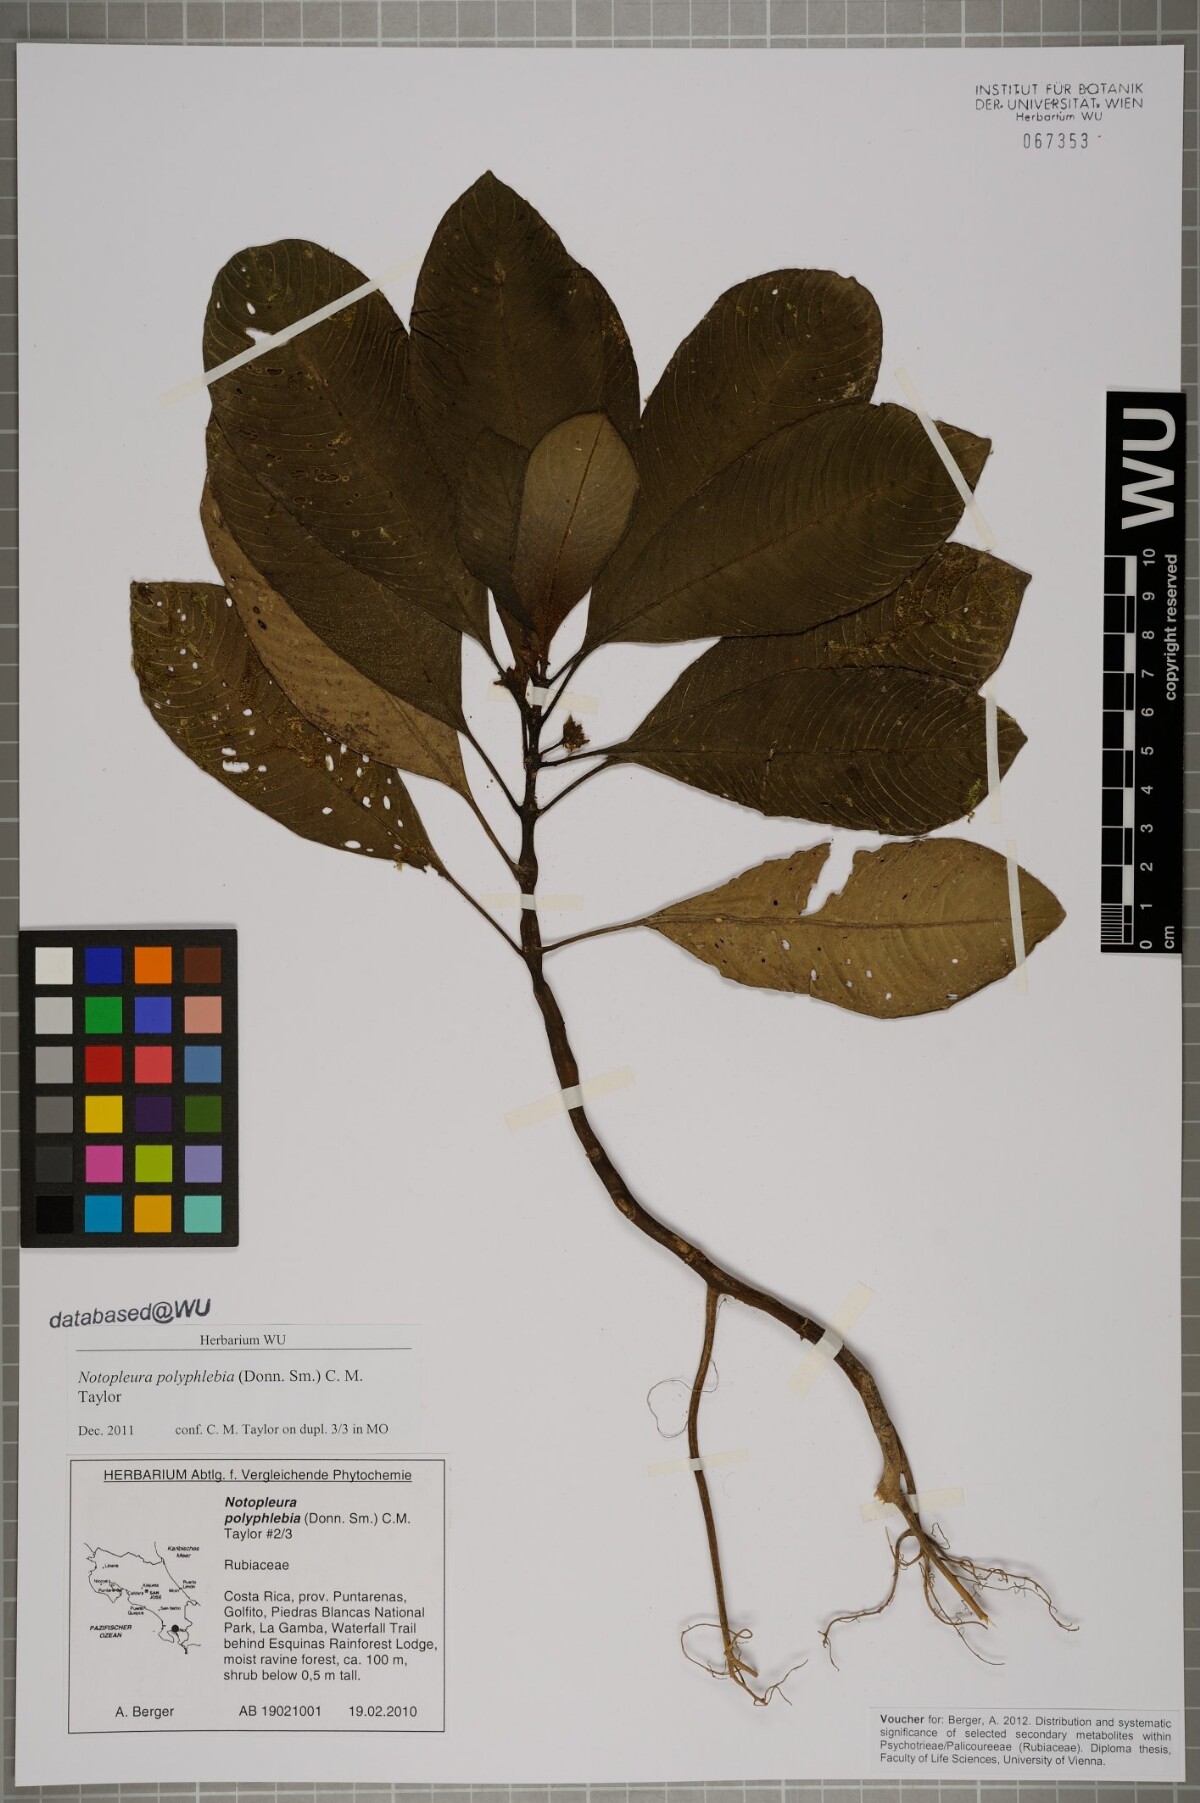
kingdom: Plantae
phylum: Tracheophyta
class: Magnoliopsida
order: Gentianales
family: Rubiaceae
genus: Notopleura
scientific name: Notopleura polyphlebia
